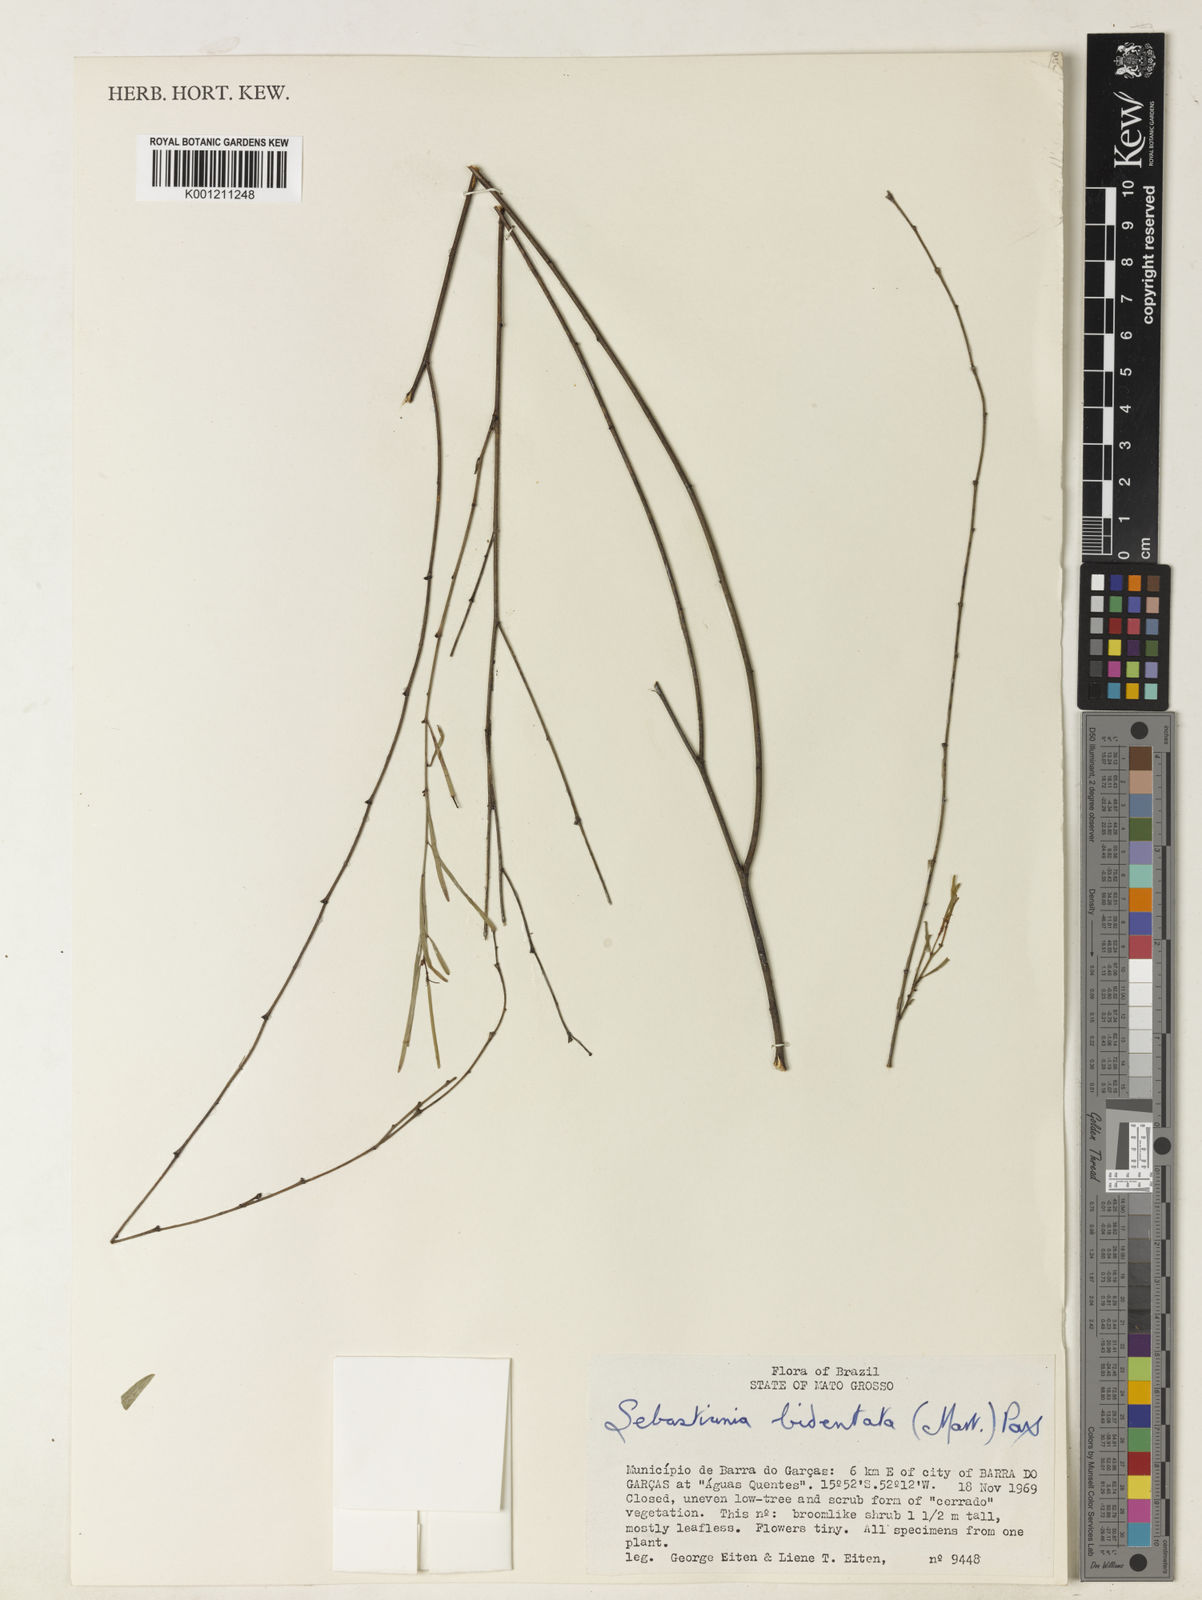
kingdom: Plantae
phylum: Tracheophyta
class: Magnoliopsida
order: Malpighiales
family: Euphorbiaceae
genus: Microstachys
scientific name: Microstachys bidentata
